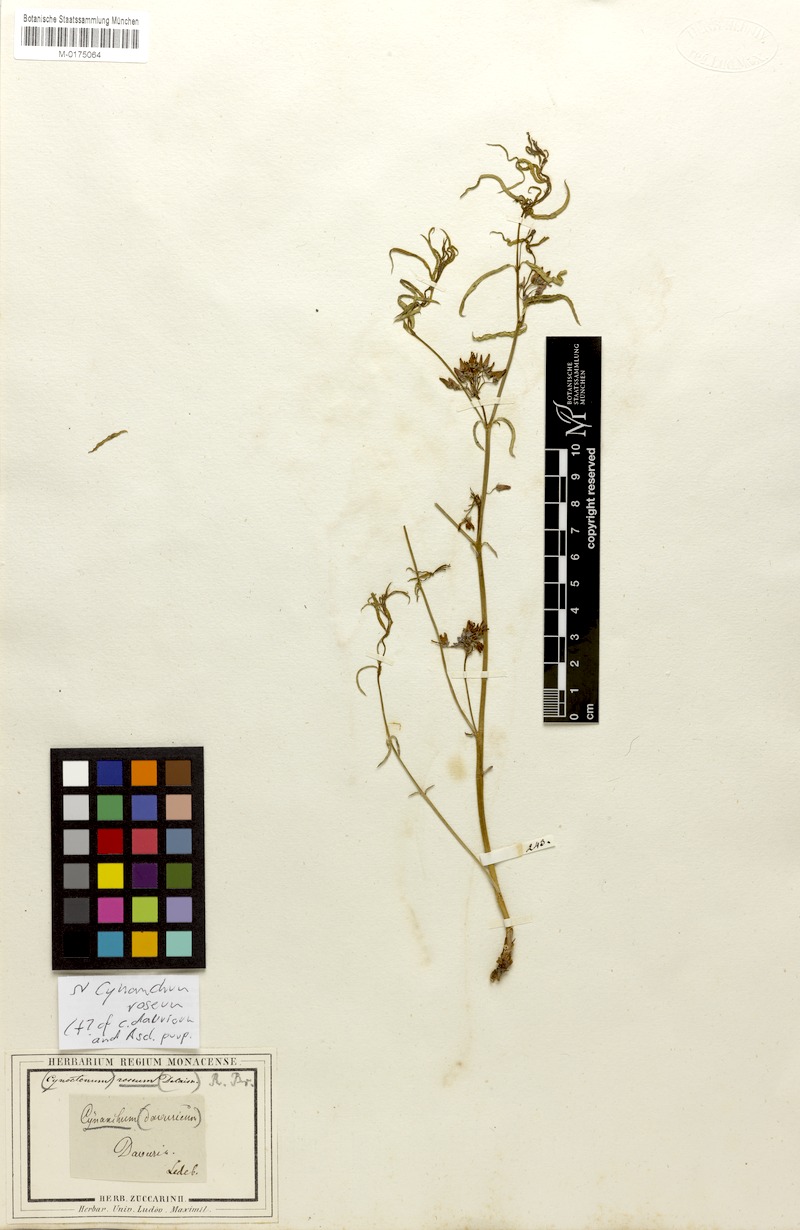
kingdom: Plantae
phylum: Tracheophyta
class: Magnoliopsida
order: Gentianales
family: Apocynaceae
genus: Vincetoxicum
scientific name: Vincetoxicum purpureum
